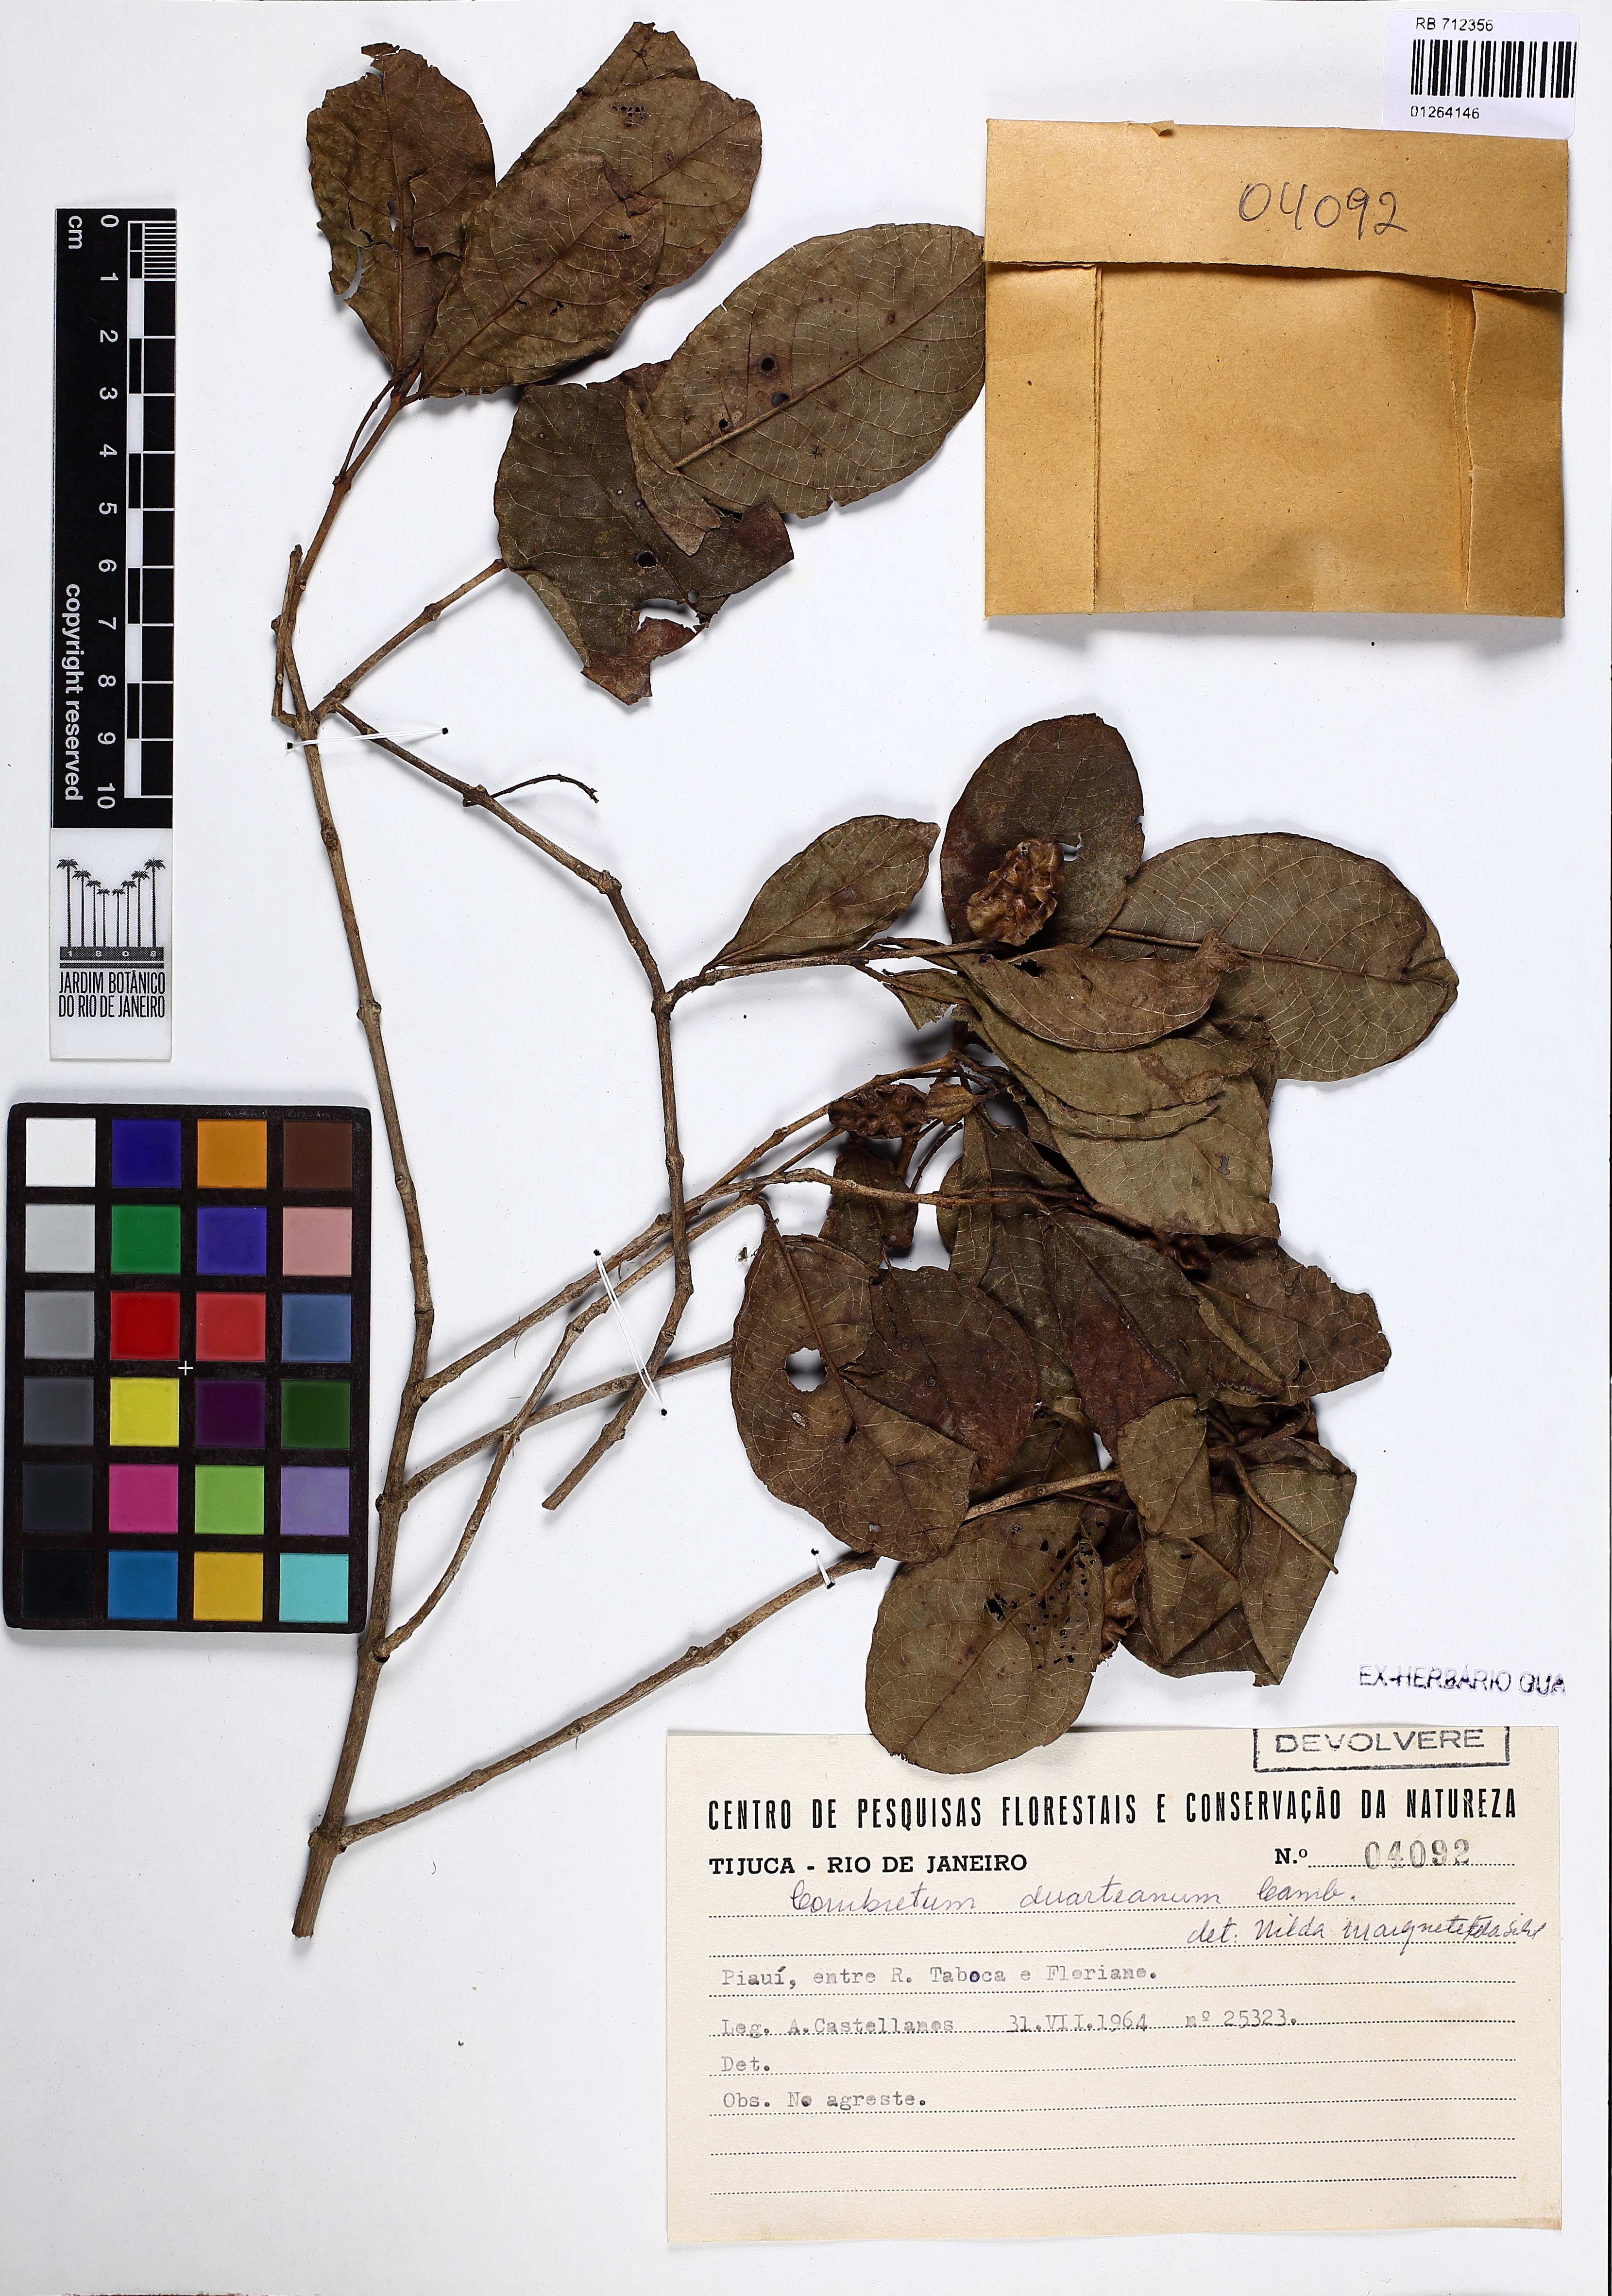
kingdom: Plantae
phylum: Tracheophyta
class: Magnoliopsida
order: Myrtales
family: Combretaceae
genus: Combretum
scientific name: Combretum duarteanum
